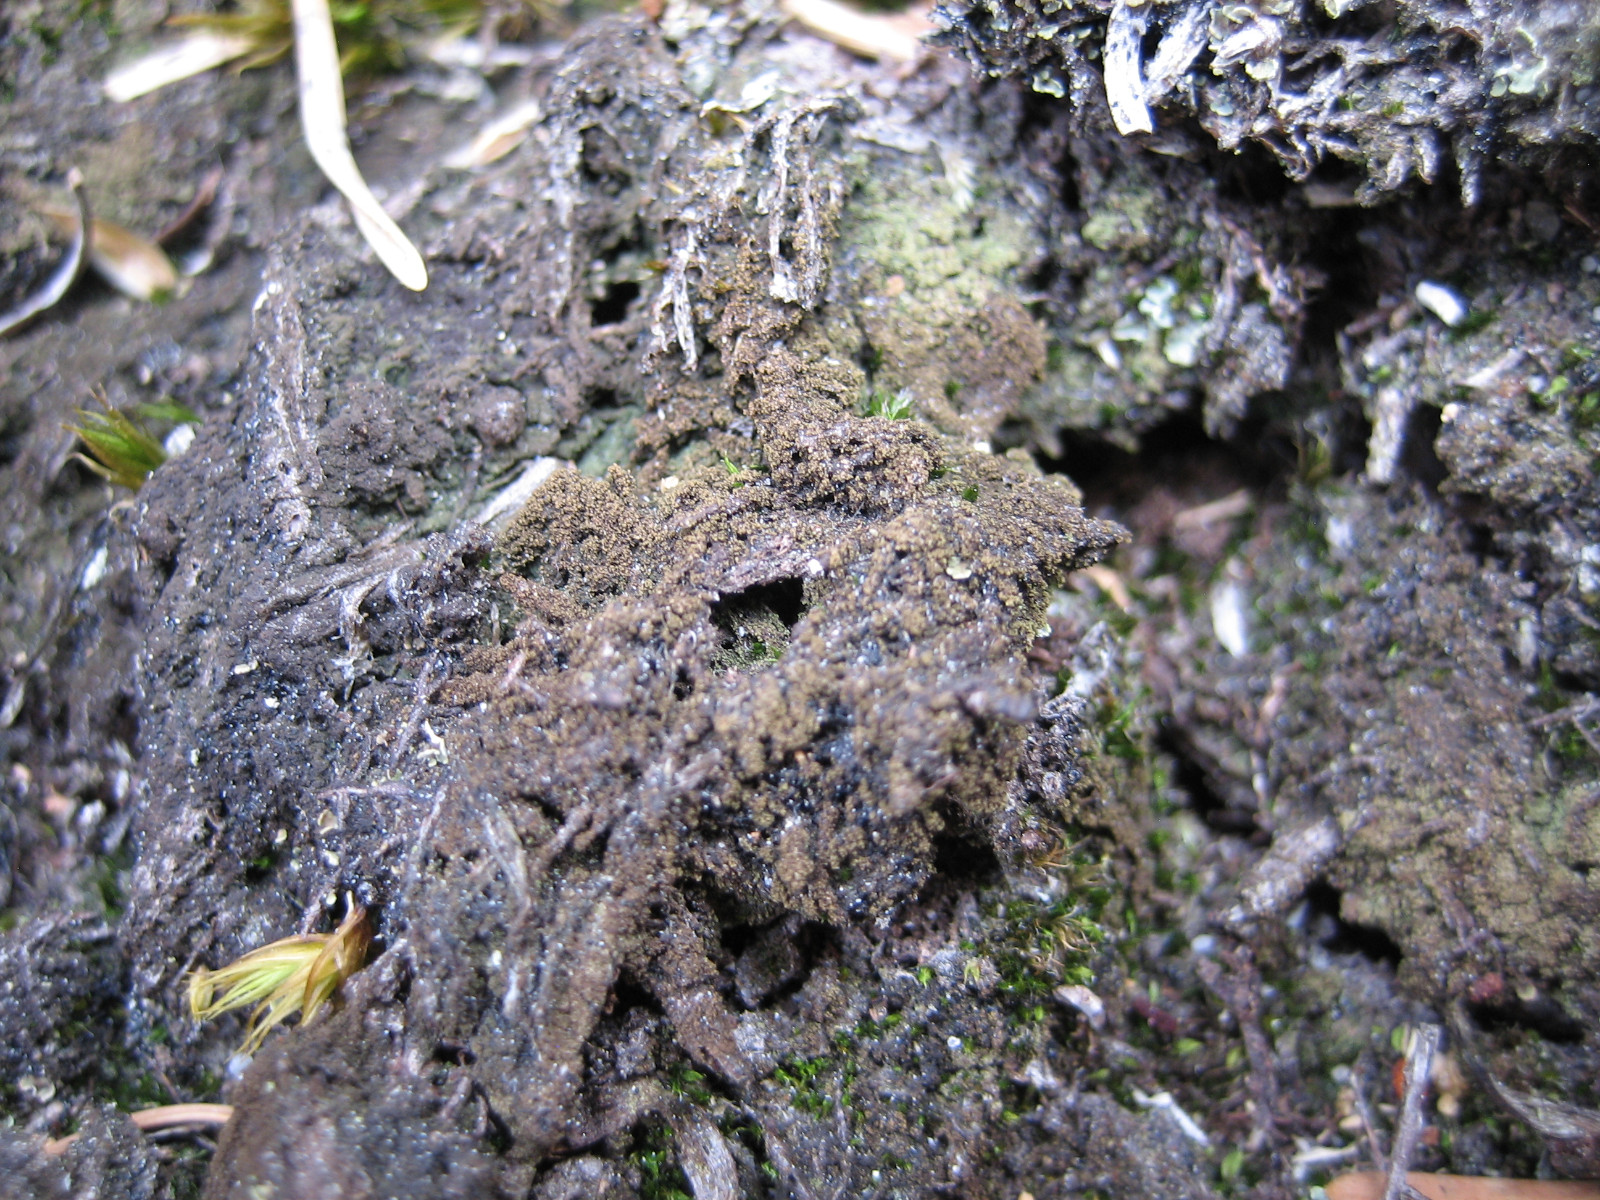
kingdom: Fungi
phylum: Ascomycota
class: Lecanoromycetes
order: Baeomycetales
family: Trapeliaceae
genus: Placynthiella
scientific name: Placynthiella icmalea
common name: stift-skivelav
